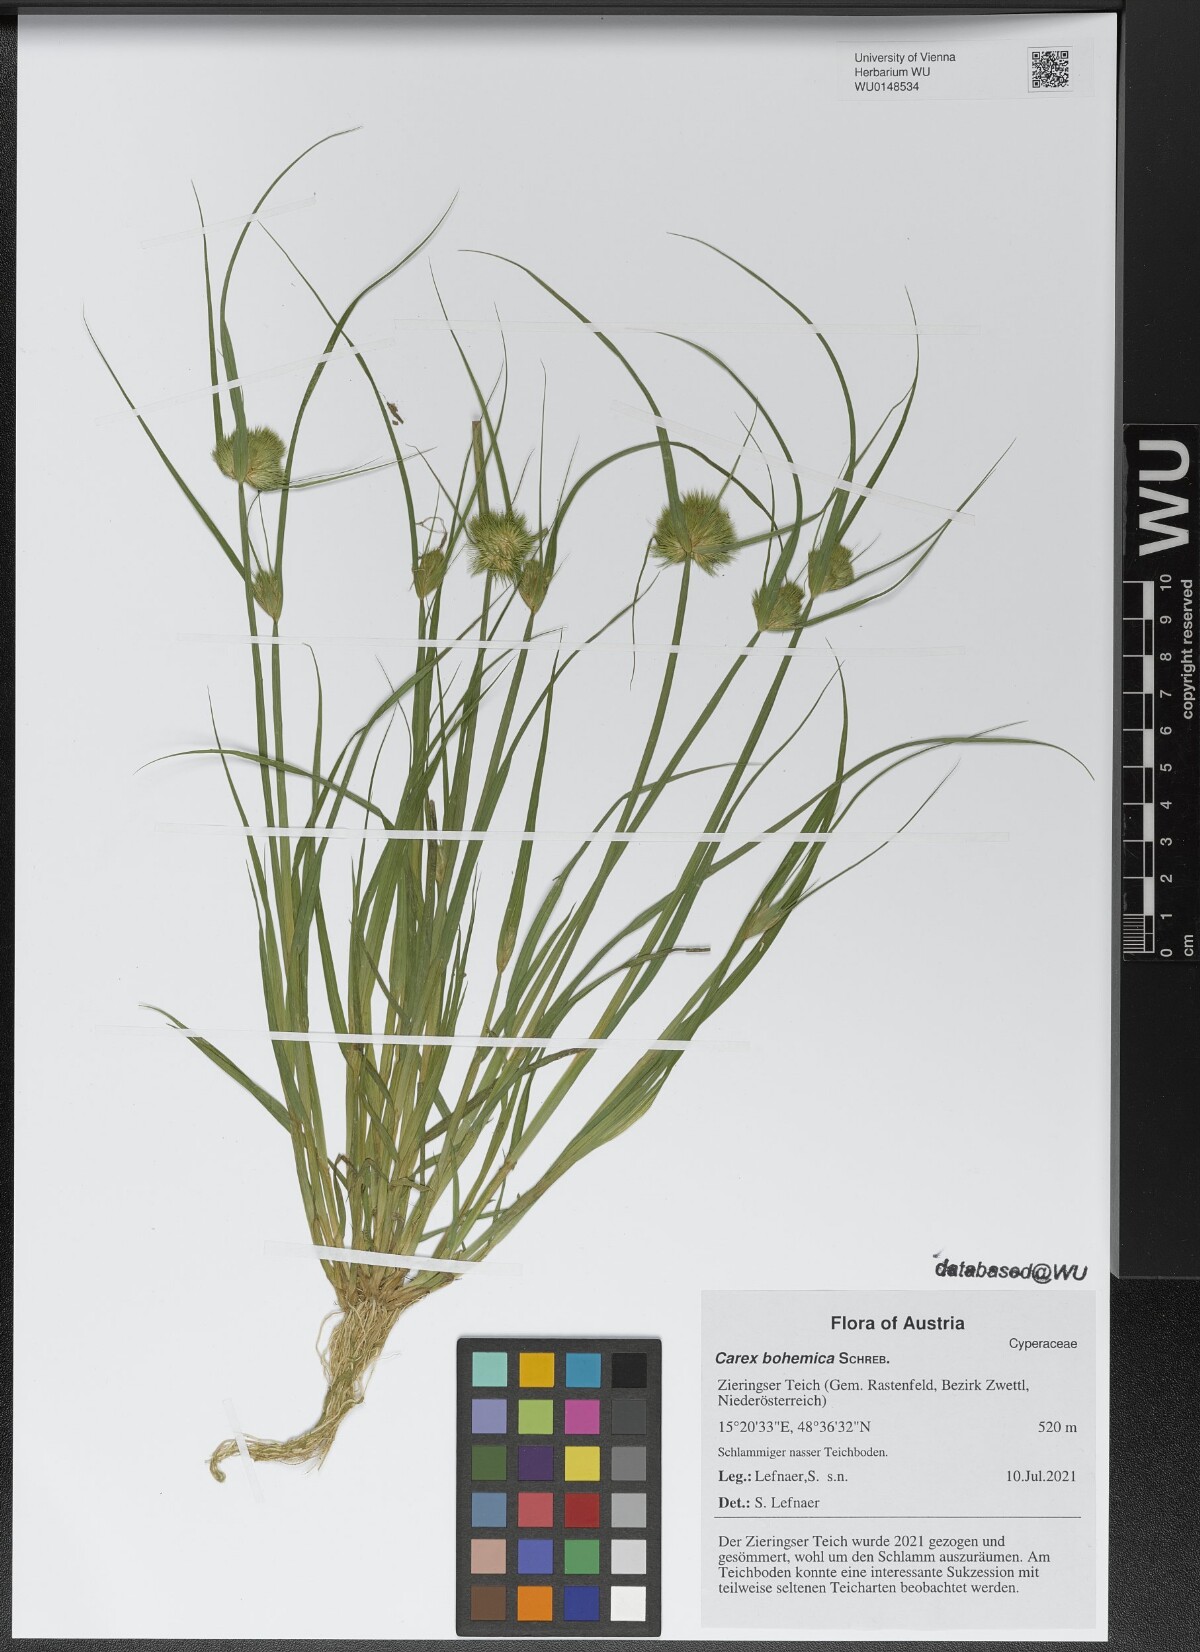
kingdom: Plantae
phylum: Tracheophyta
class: Liliopsida
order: Poales
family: Cyperaceae
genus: Carex
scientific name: Carex bohemica
